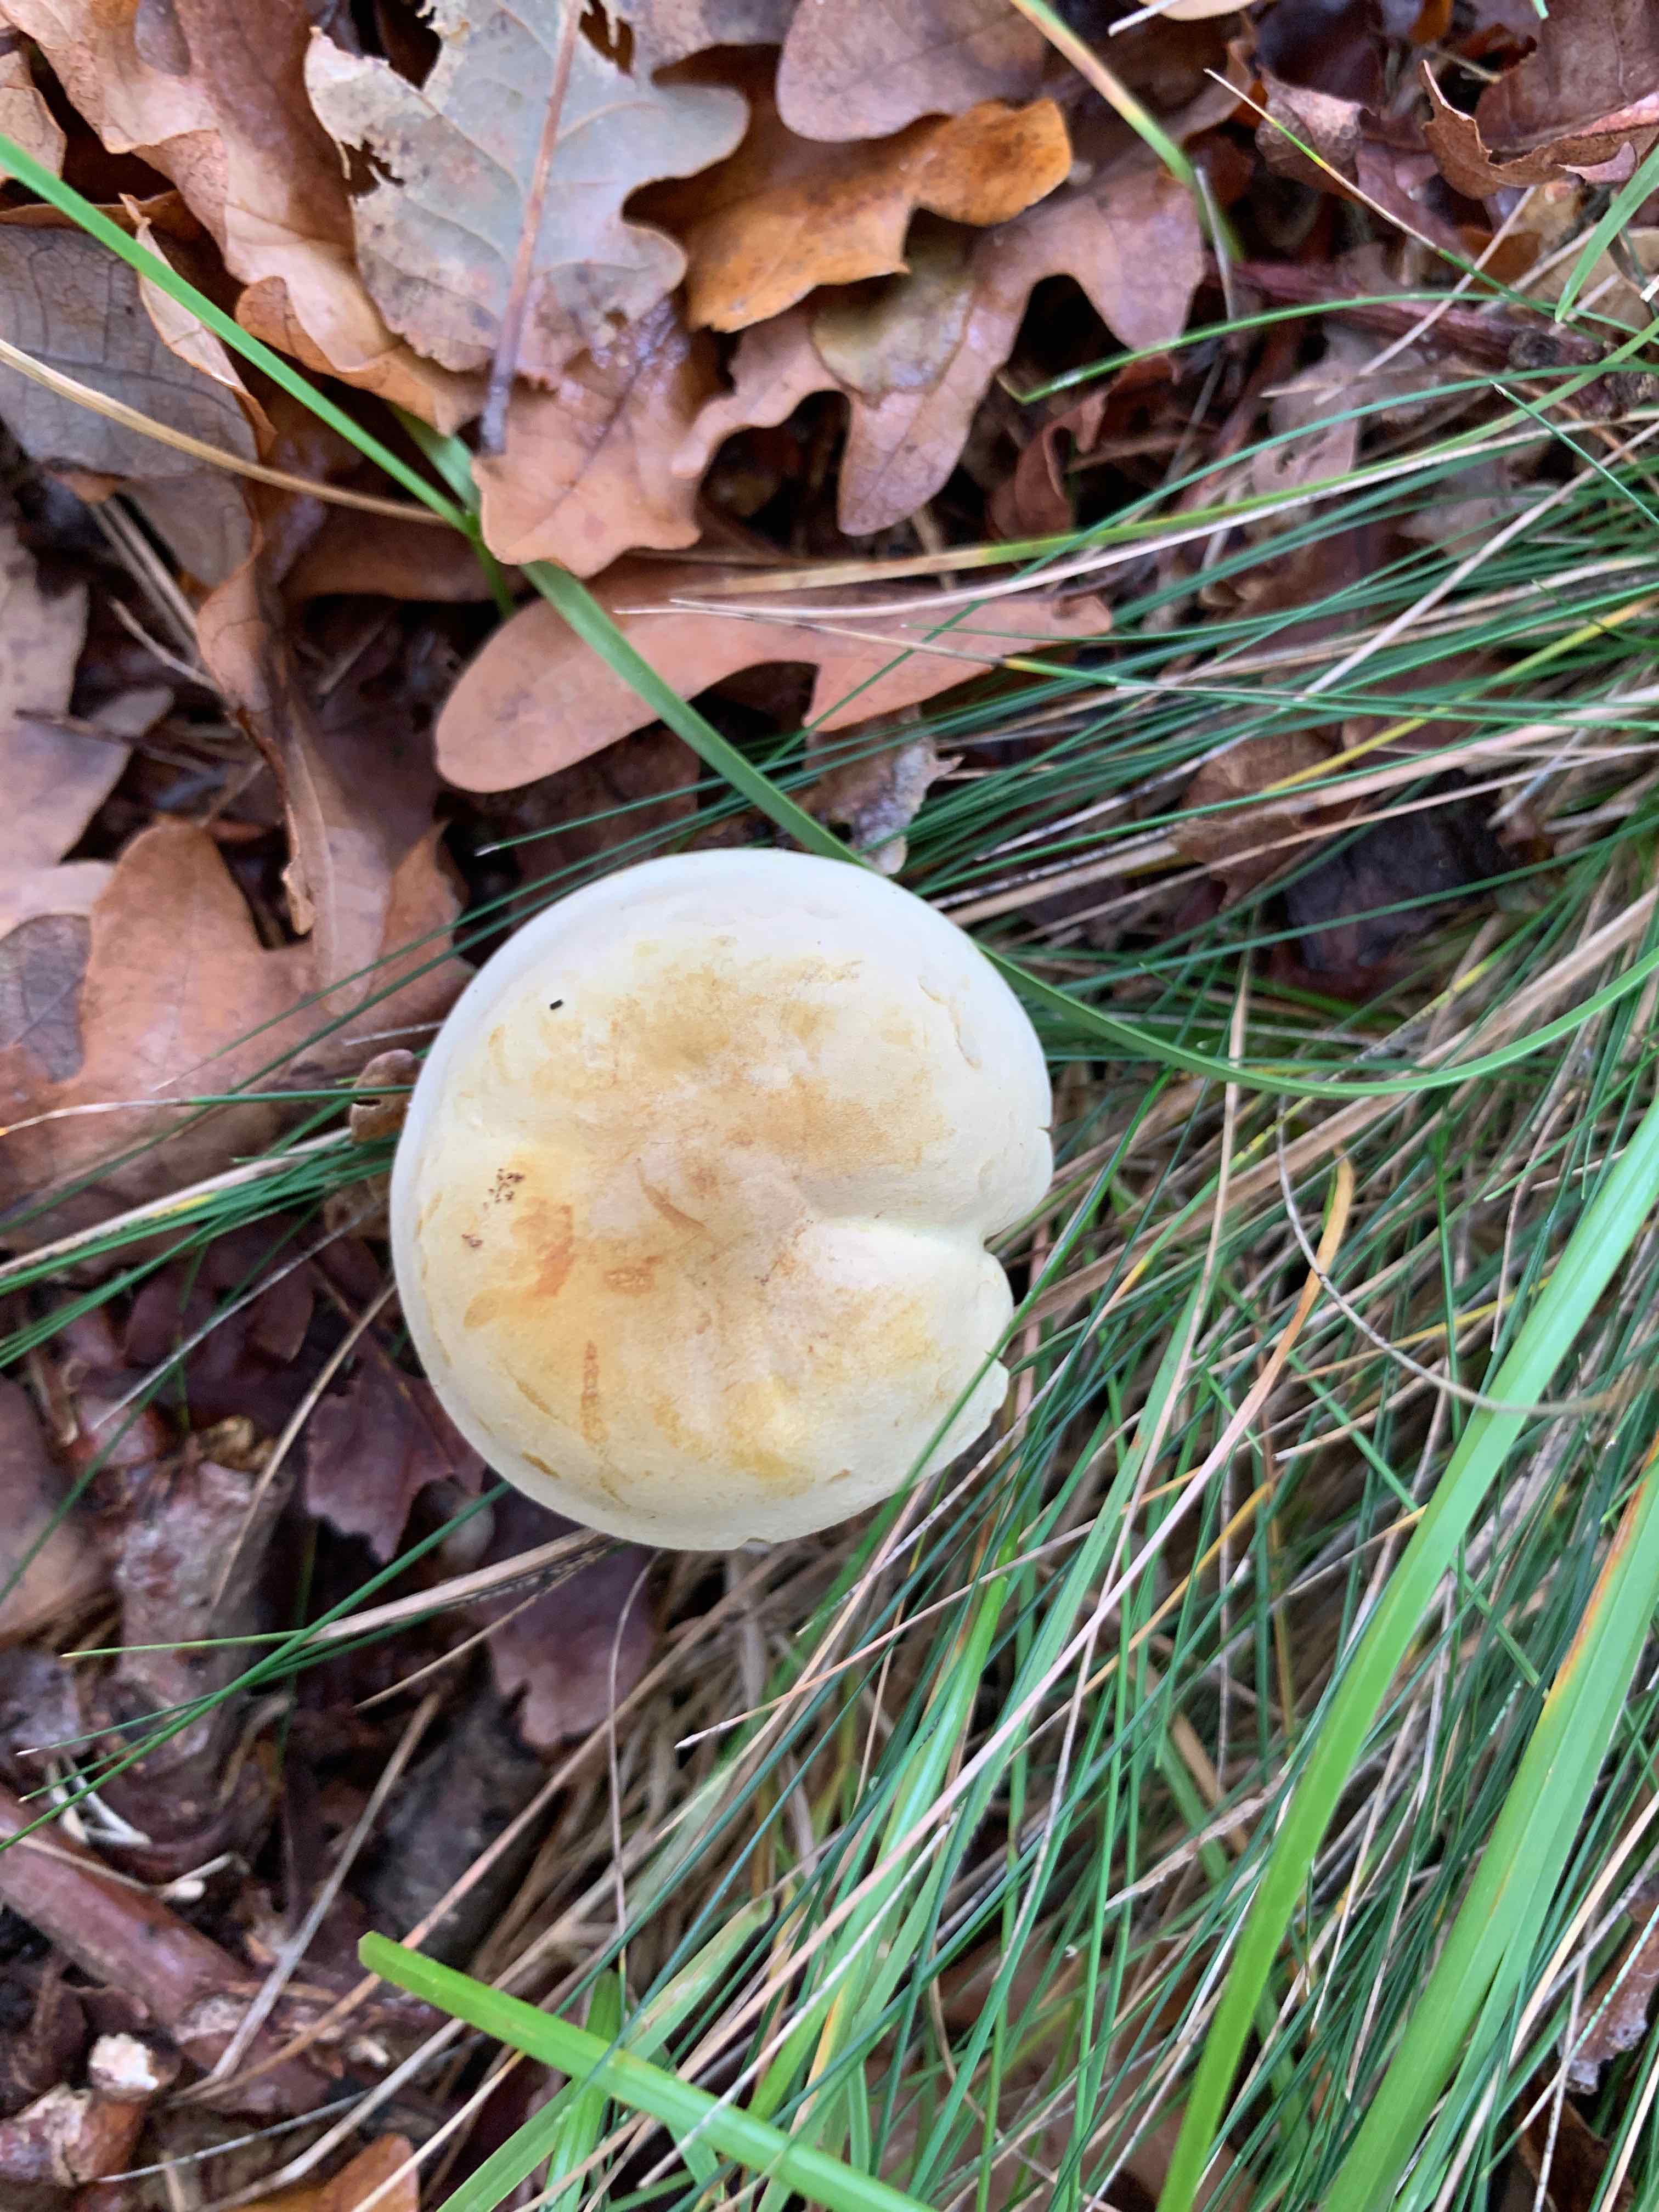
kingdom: Fungi
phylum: Basidiomycota
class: Agaricomycetes
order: Agaricales
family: Tricholomataceae
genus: Tricholoma
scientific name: Tricholoma
